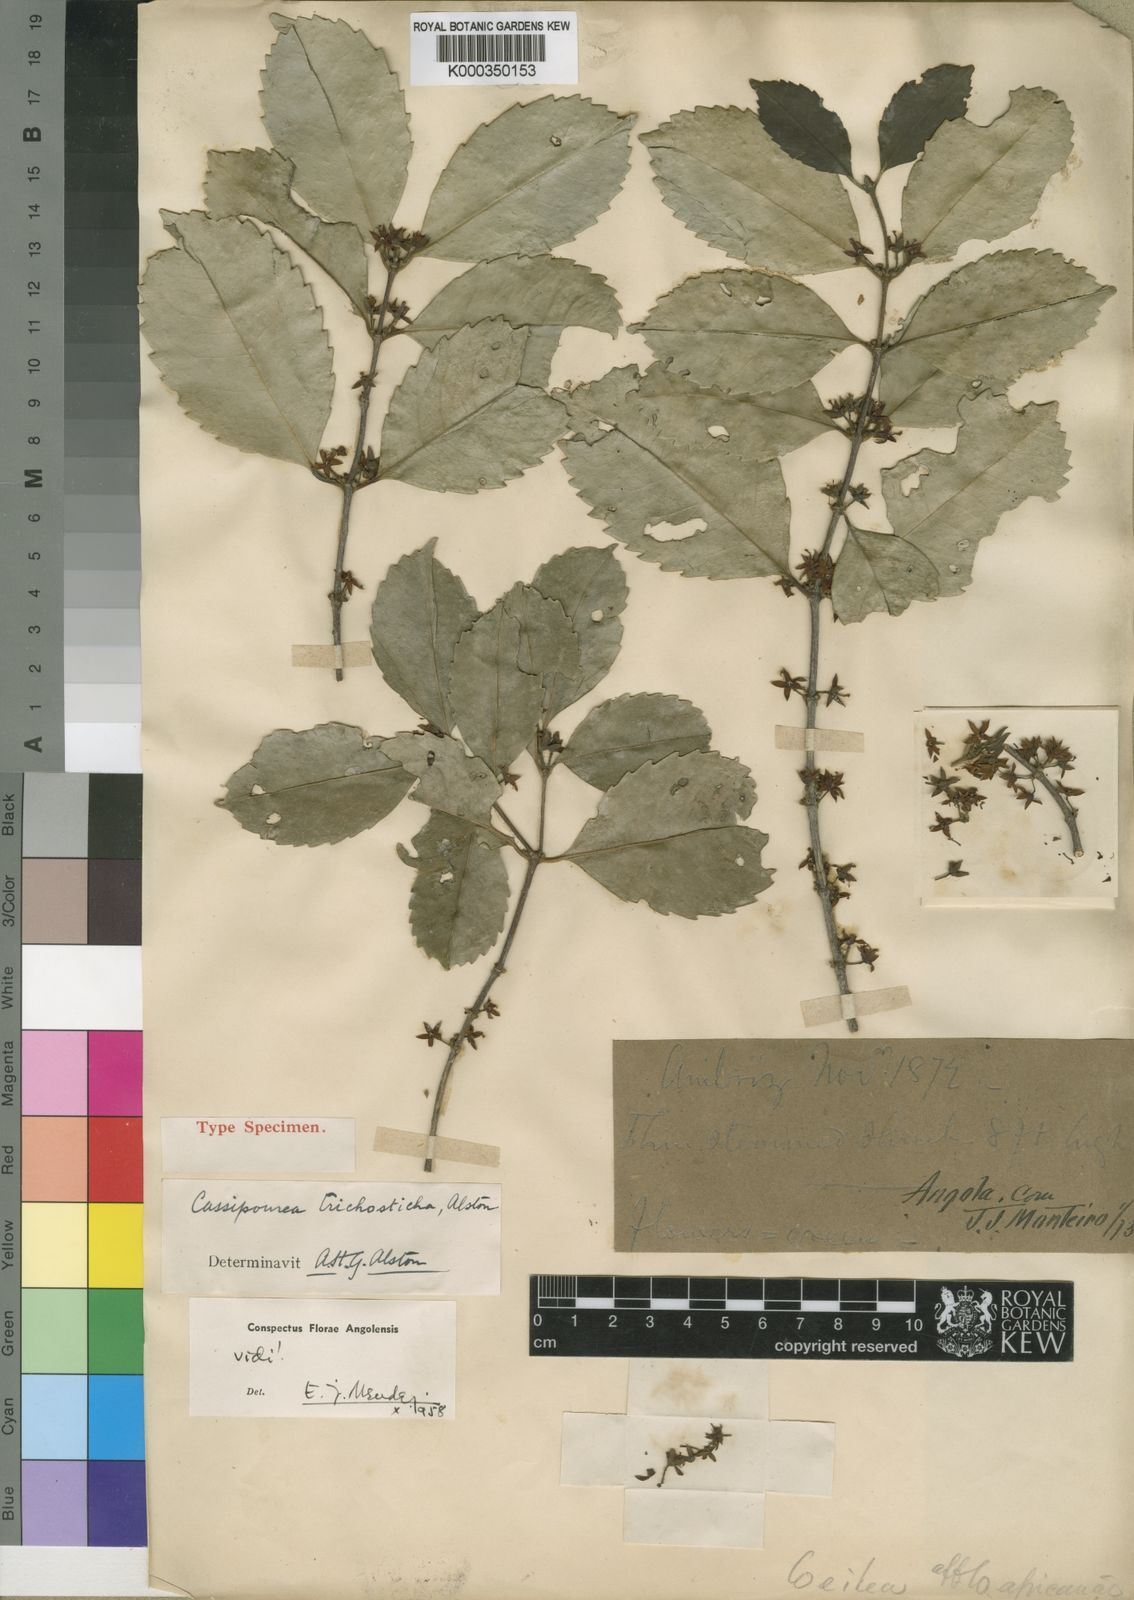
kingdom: Plantae
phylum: Tracheophyta
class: Magnoliopsida
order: Malpighiales
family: Rhizophoraceae
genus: Cassipourea
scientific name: Cassipourea trichosticha
